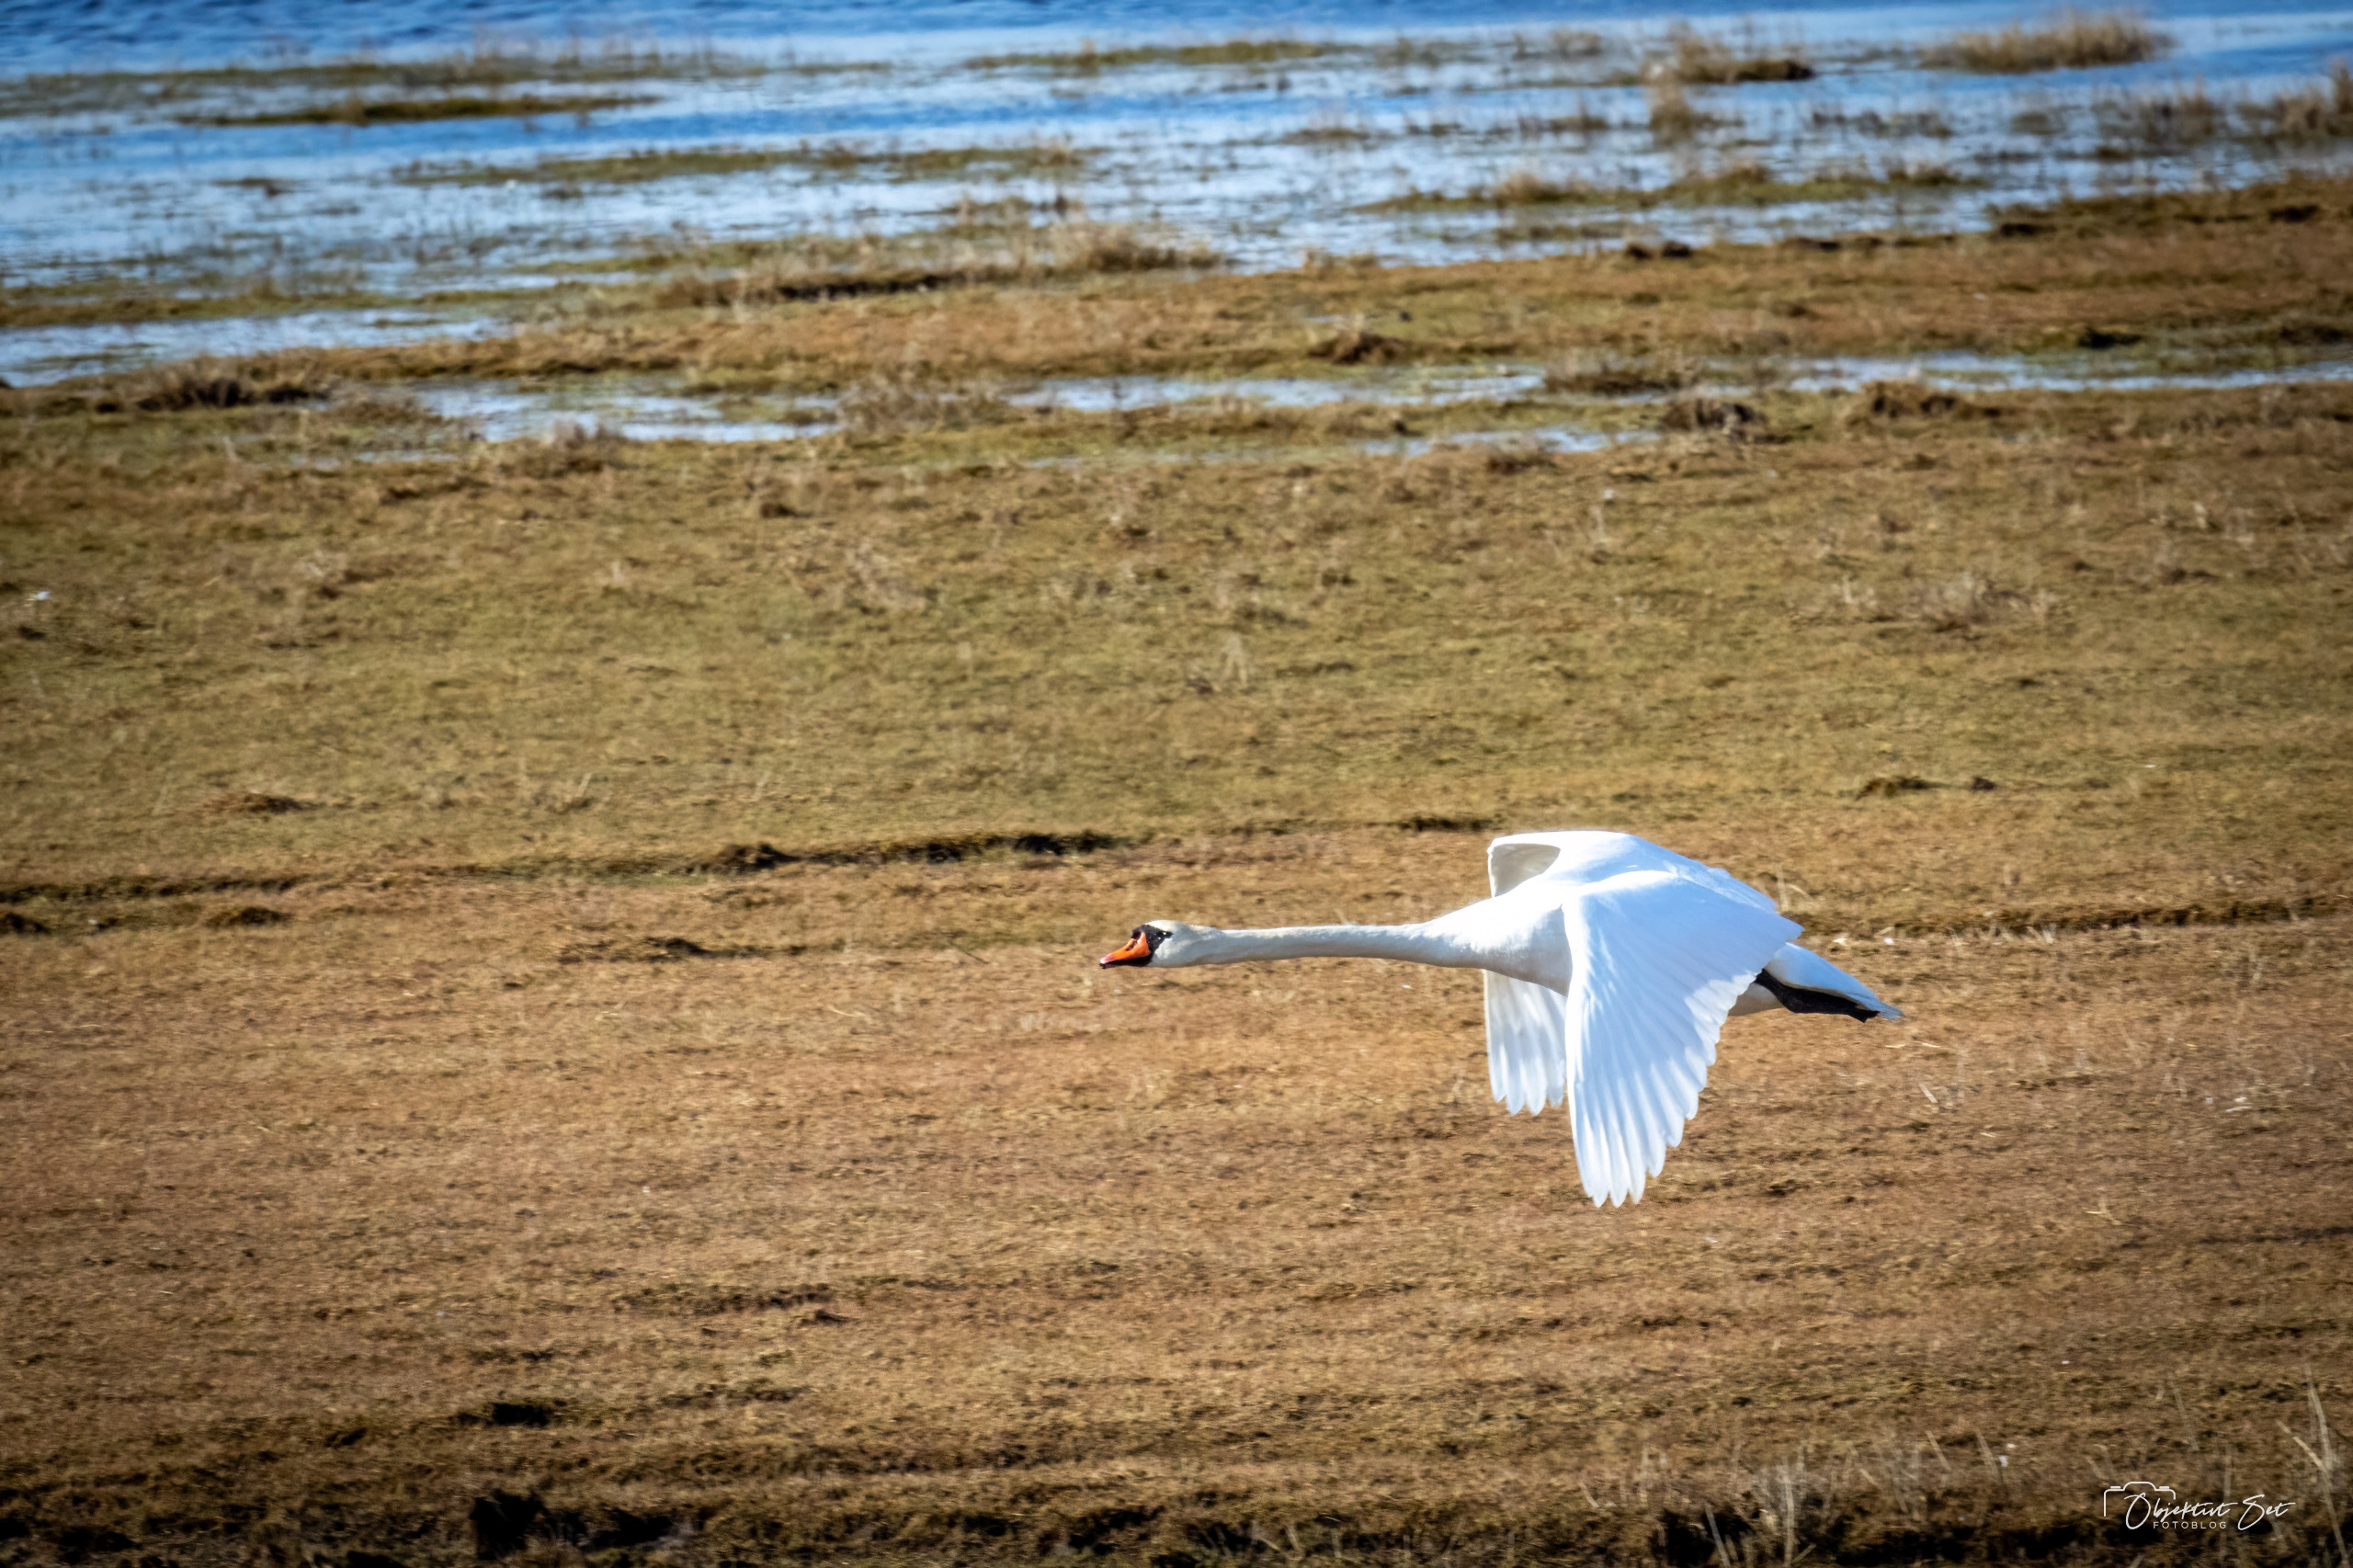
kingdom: Animalia
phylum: Chordata
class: Aves
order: Anseriformes
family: Anatidae
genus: Cygnus
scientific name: Cygnus olor
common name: Knopsvane
